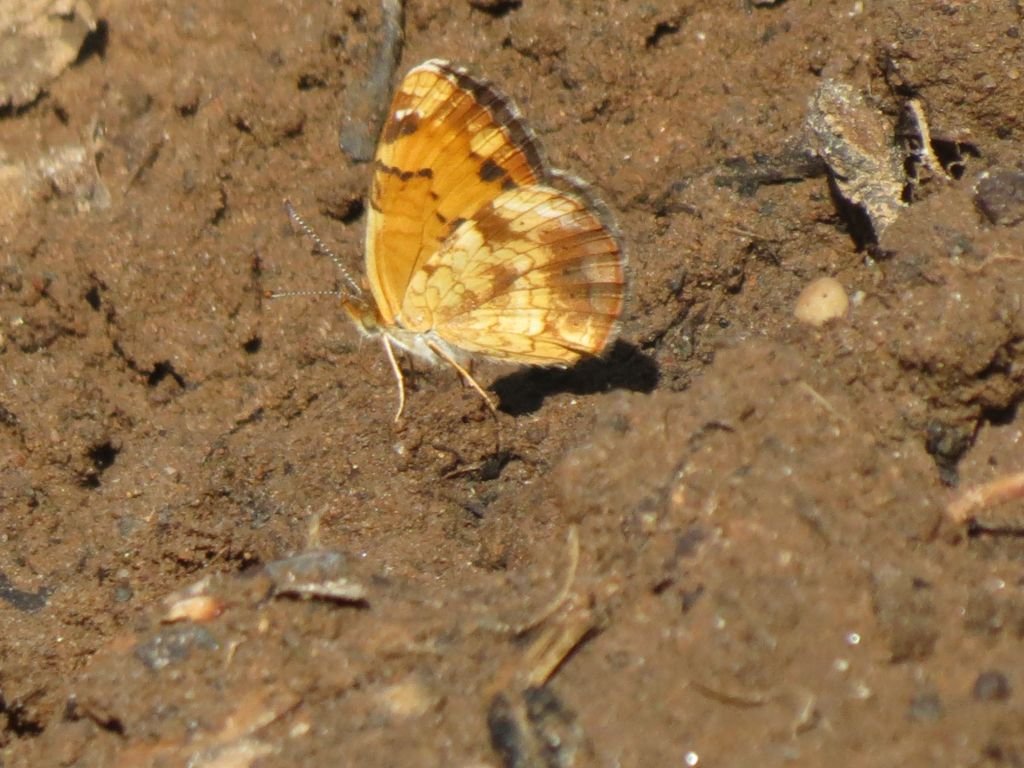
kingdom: Animalia
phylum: Arthropoda
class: Insecta
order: Lepidoptera
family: Nymphalidae
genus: Phyciodes
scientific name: Phyciodes tharos
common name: Northern Crescent
